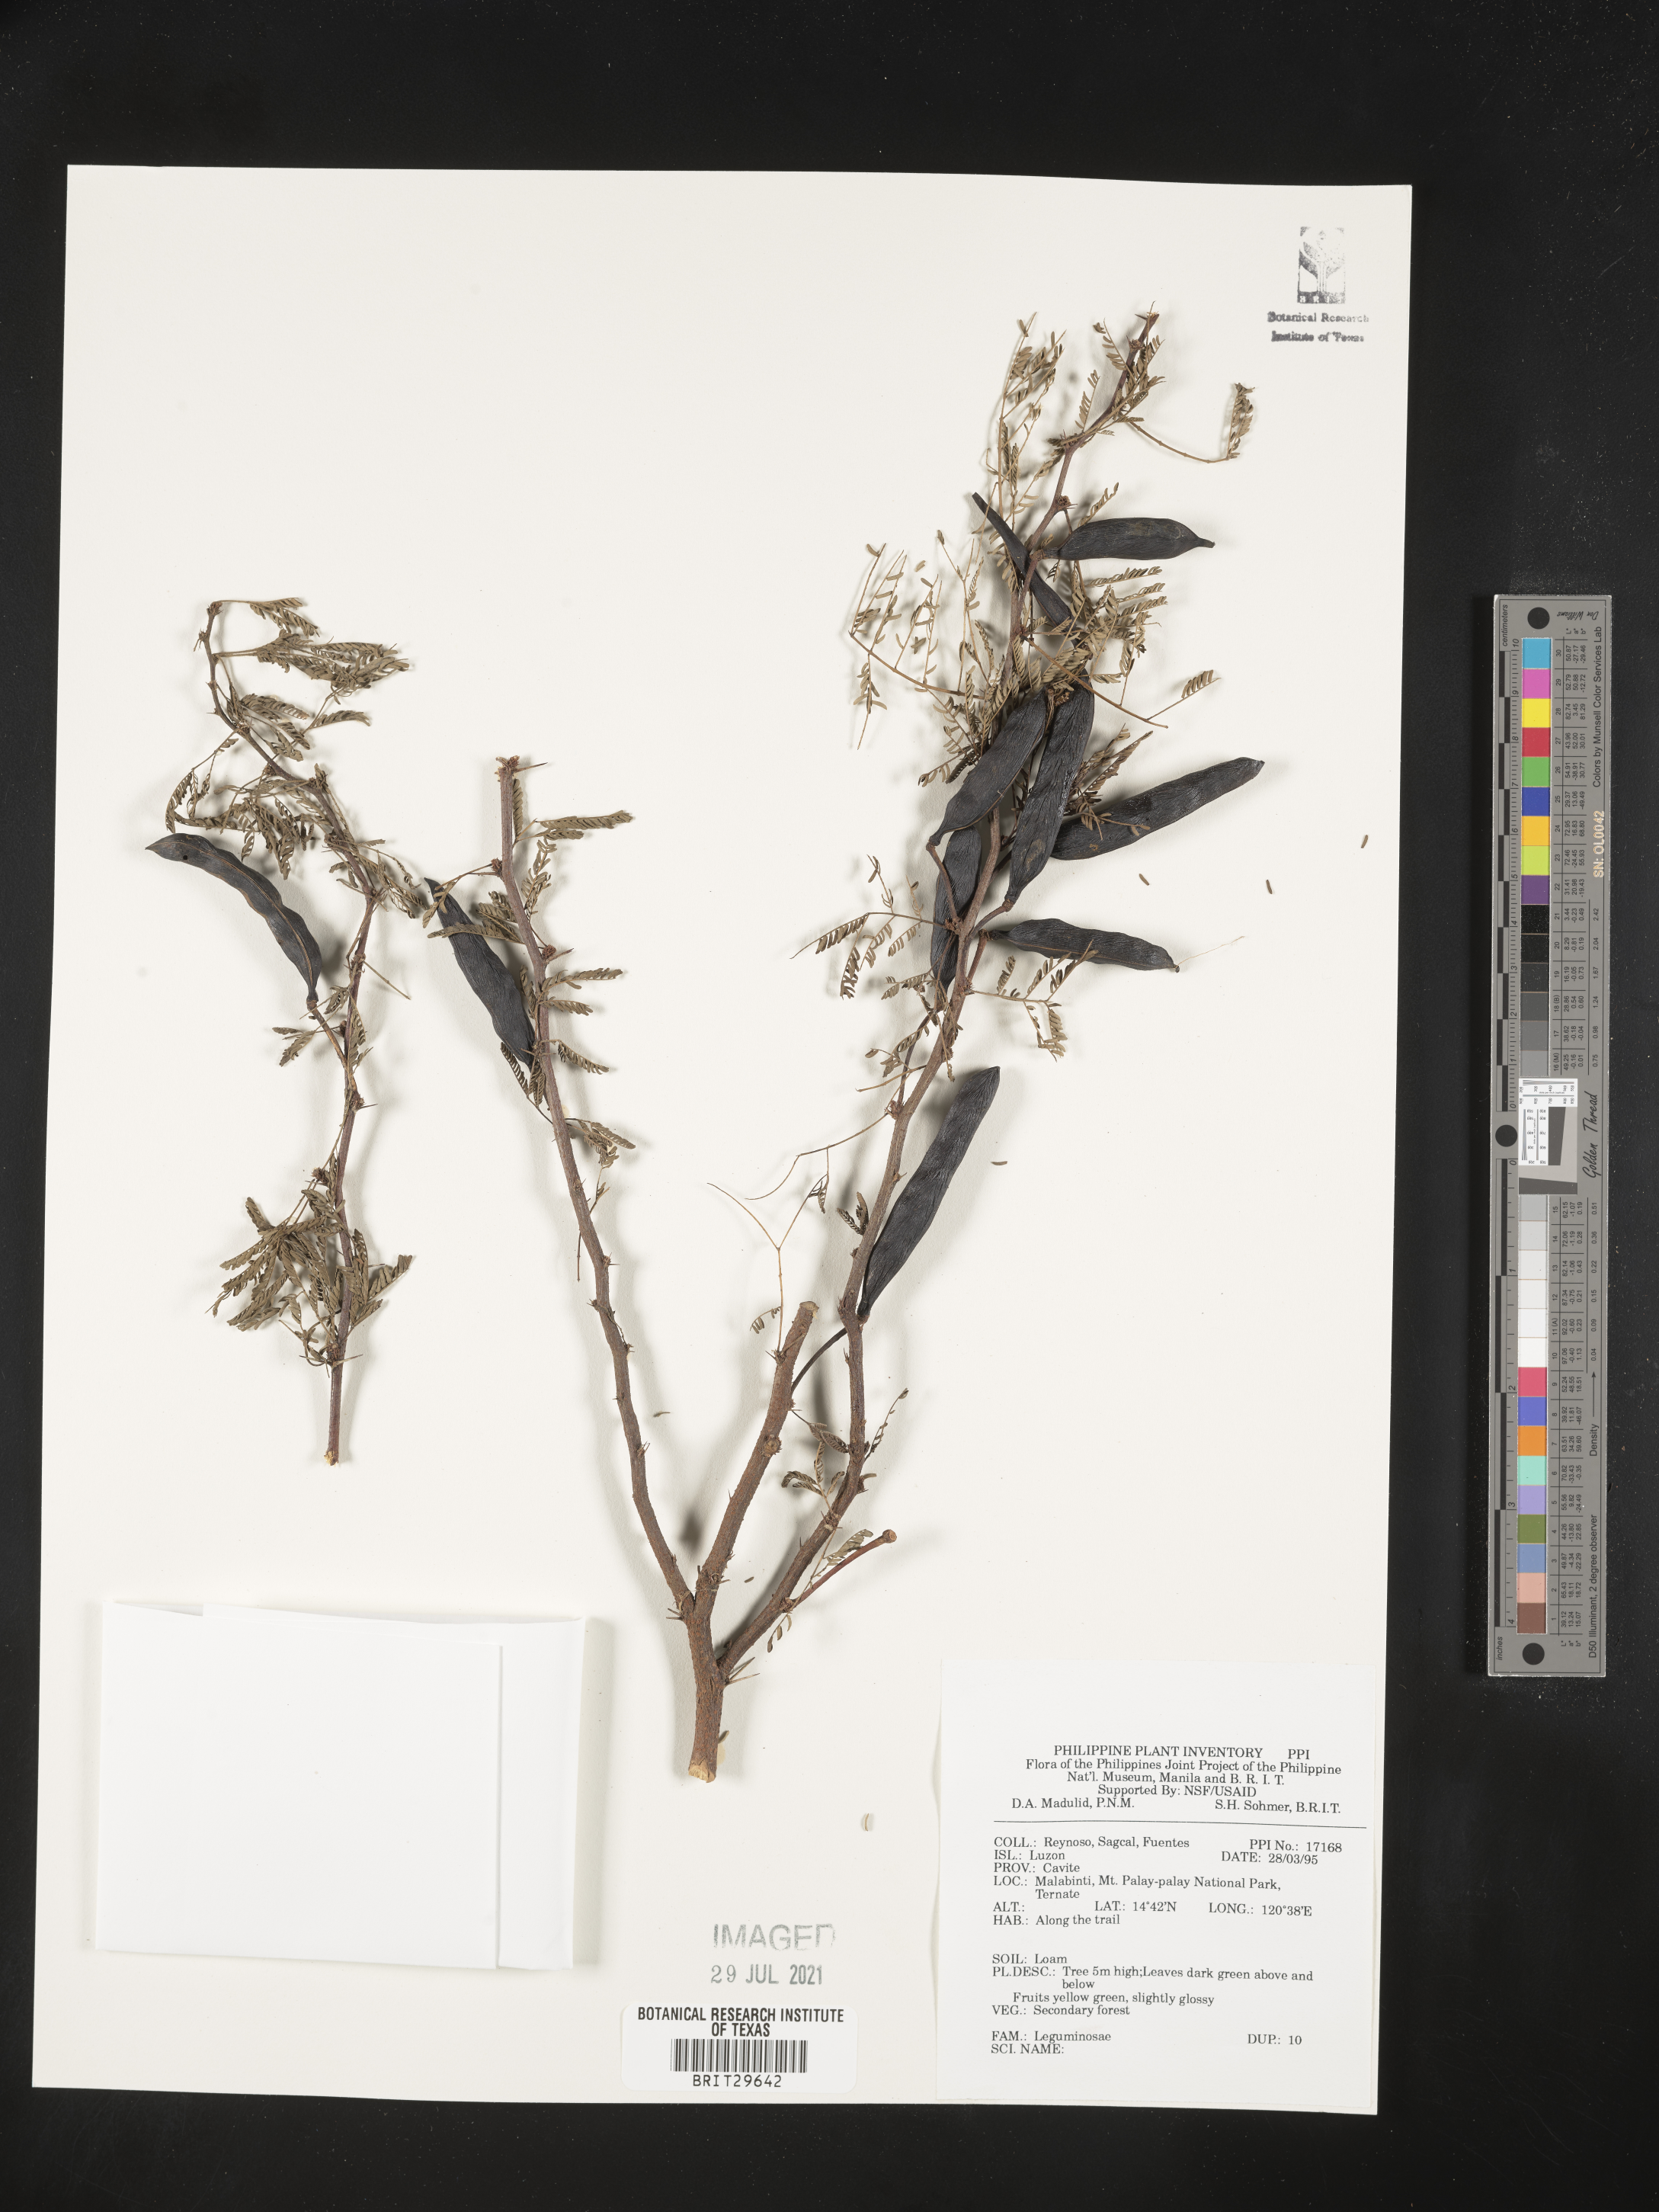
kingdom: Plantae
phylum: Tracheophyta
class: Magnoliopsida
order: Fabales
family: Fabaceae
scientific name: Fabaceae
